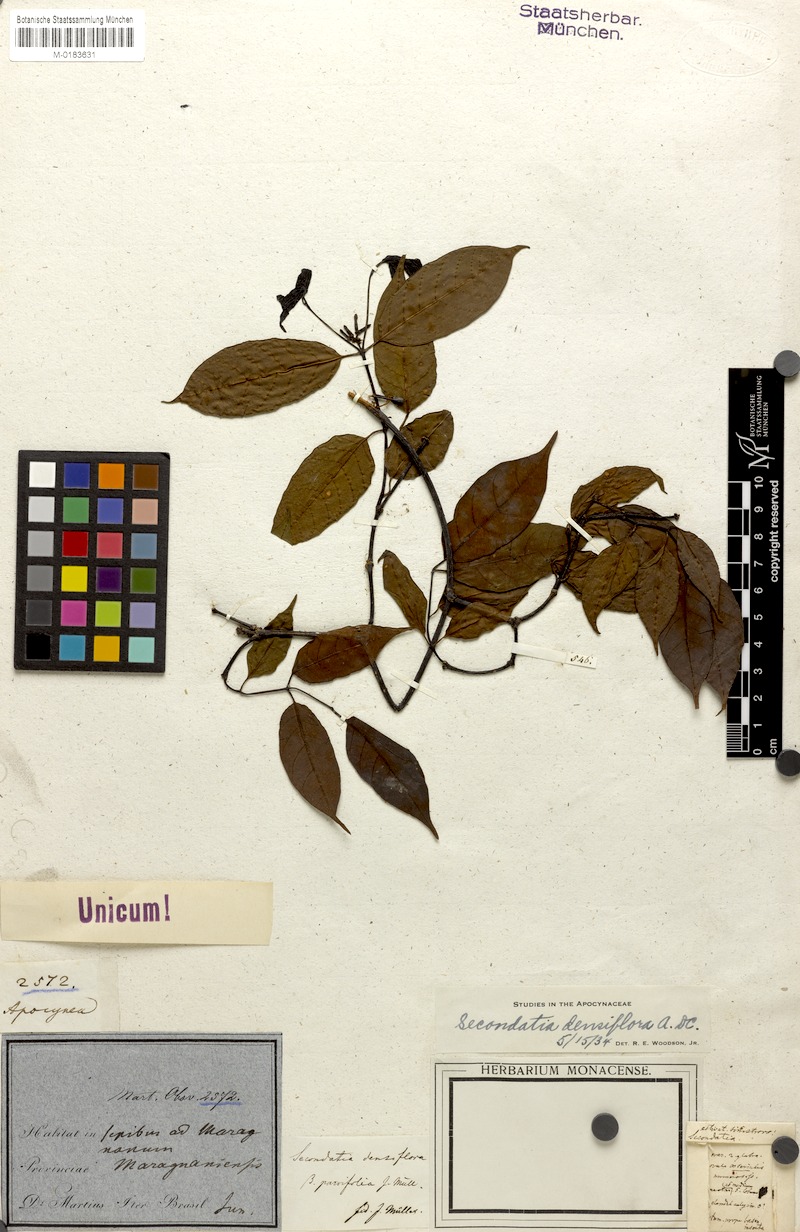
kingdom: Plantae
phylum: Tracheophyta
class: Magnoliopsida
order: Gentianales
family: Apocynaceae
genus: Secondatia
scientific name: Secondatia densiflora
